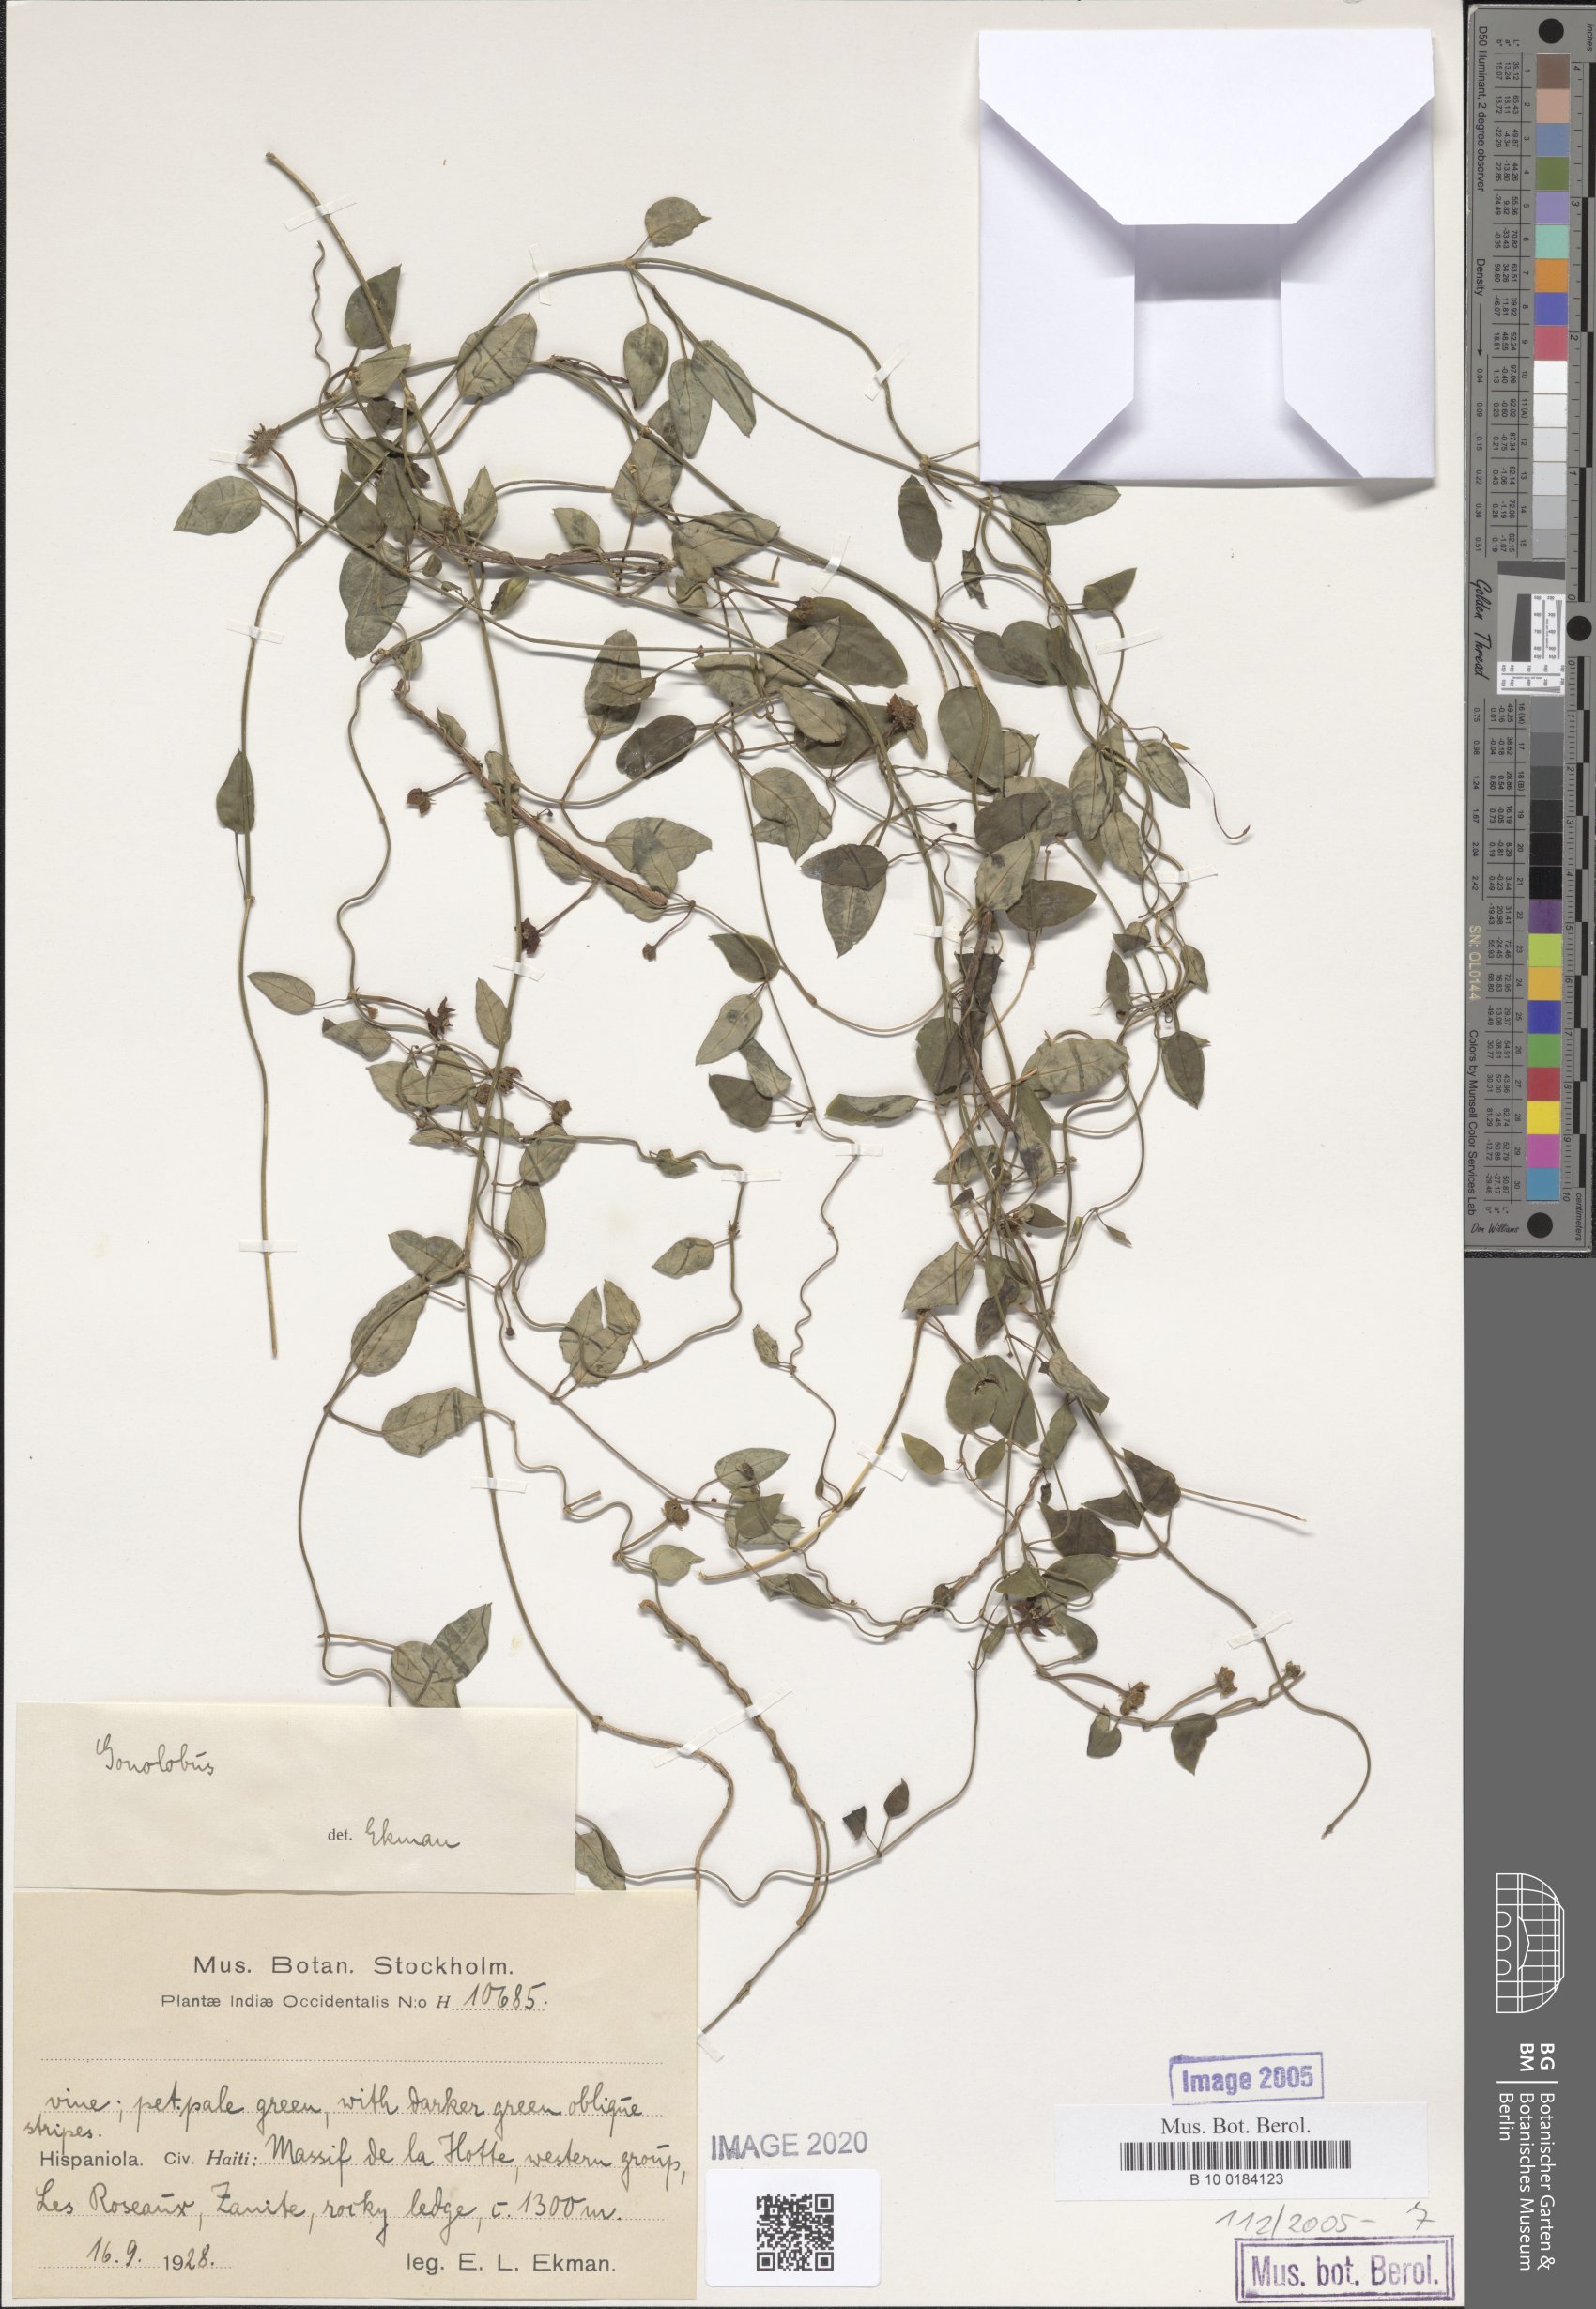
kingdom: Plantae
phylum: Tracheophyta
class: Magnoliopsida
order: Gentianales
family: Apocynaceae
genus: Gonolobus
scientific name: Gonolobus
